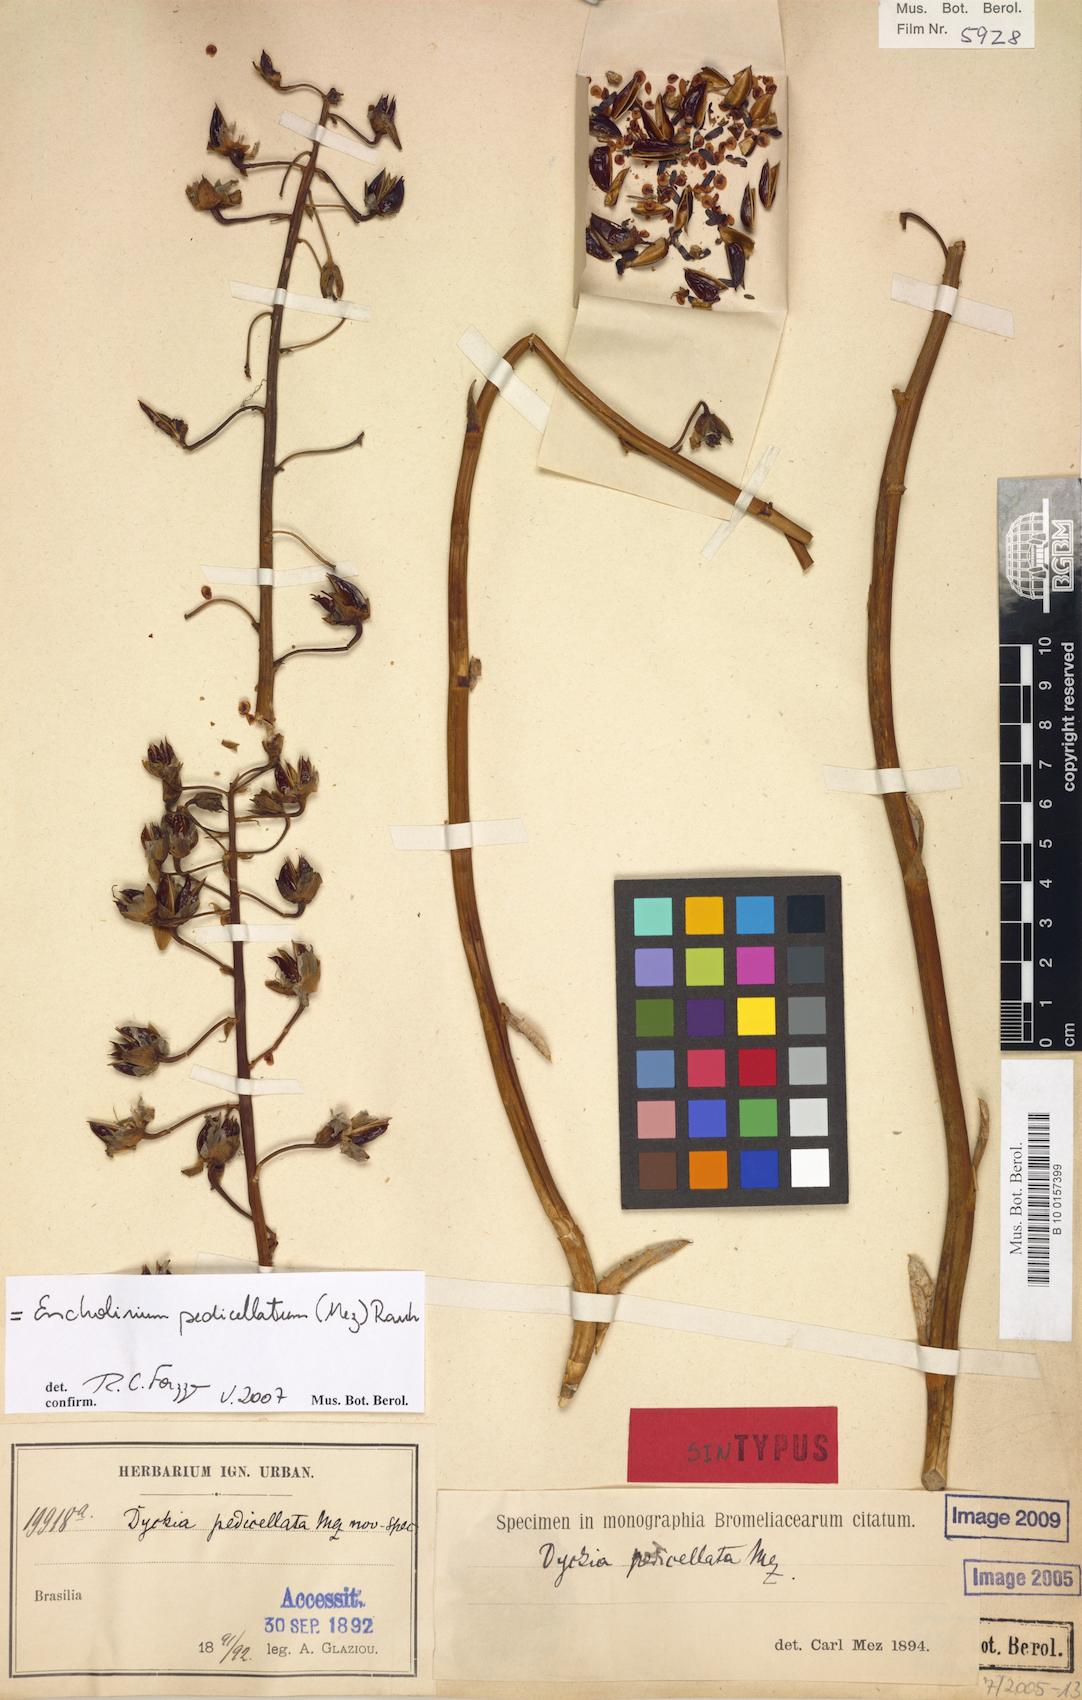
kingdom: Plantae
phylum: Tracheophyta
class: Liliopsida
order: Poales
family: Bromeliaceae
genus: Encholirium
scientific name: Encholirium pedicellatum
